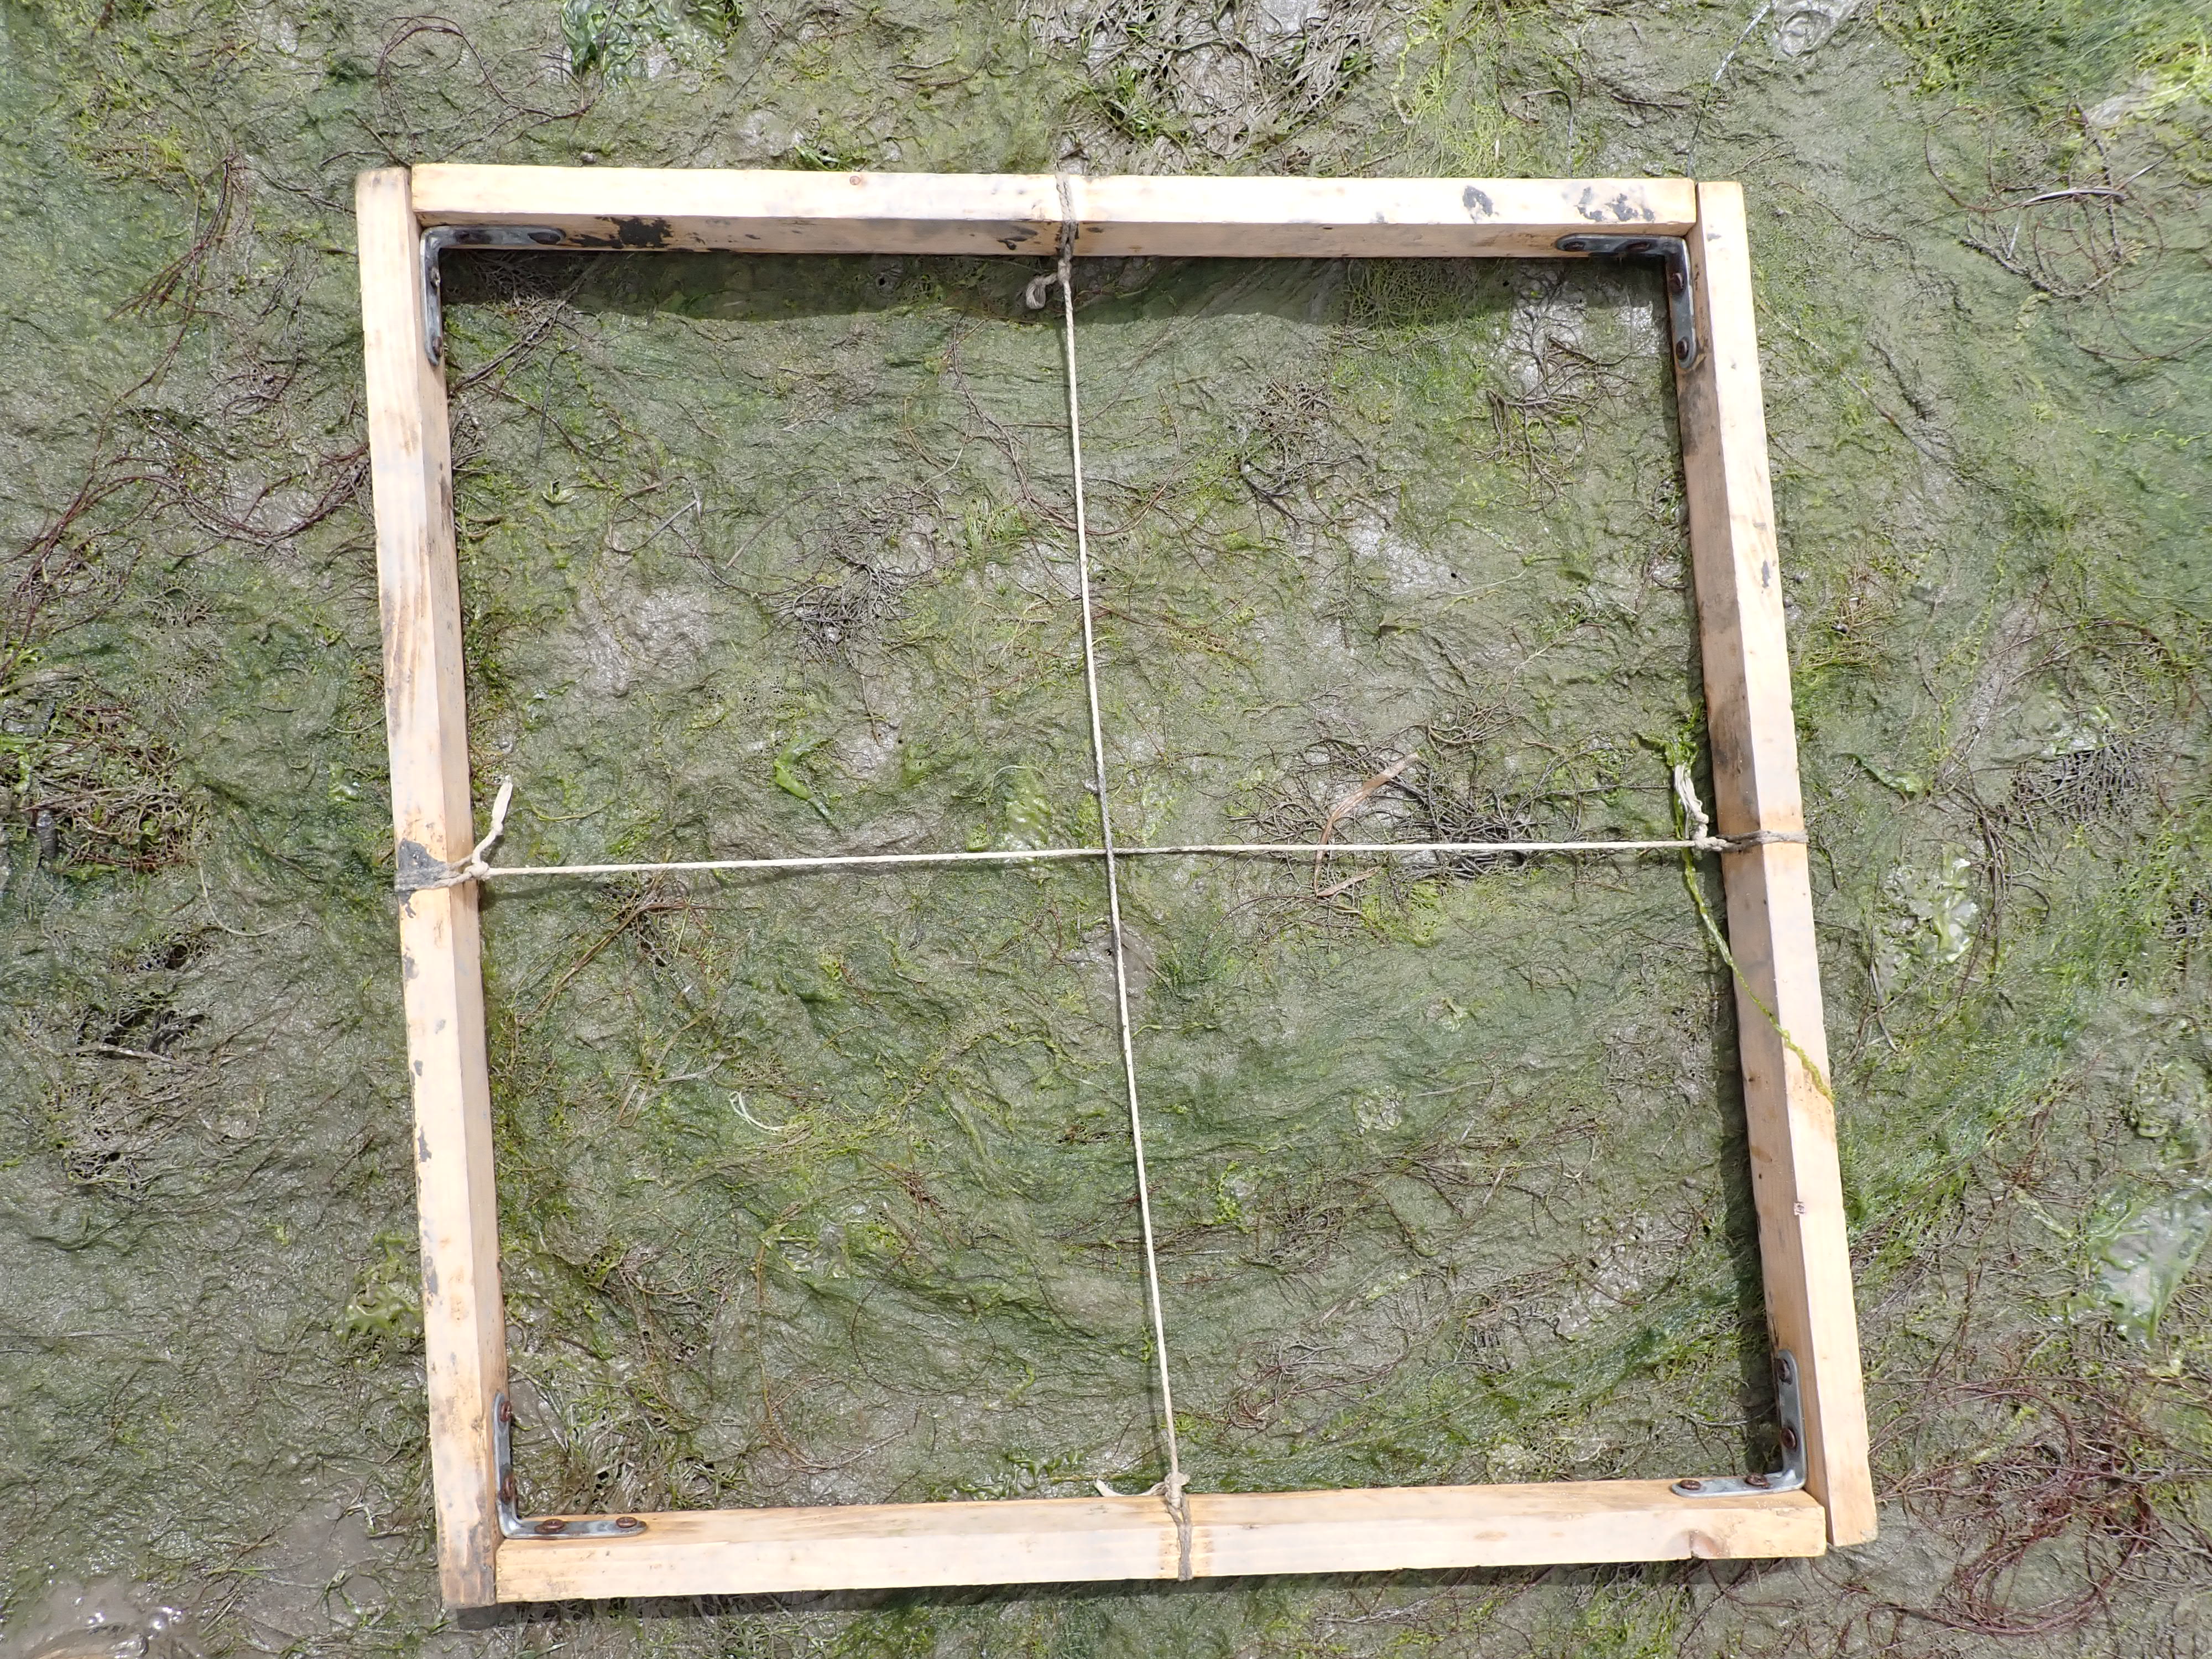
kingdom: Plantae
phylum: Chlorophyta
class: Ulvophyceae
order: Ulvales
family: Ulvaceae
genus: Ulva
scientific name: Ulva
